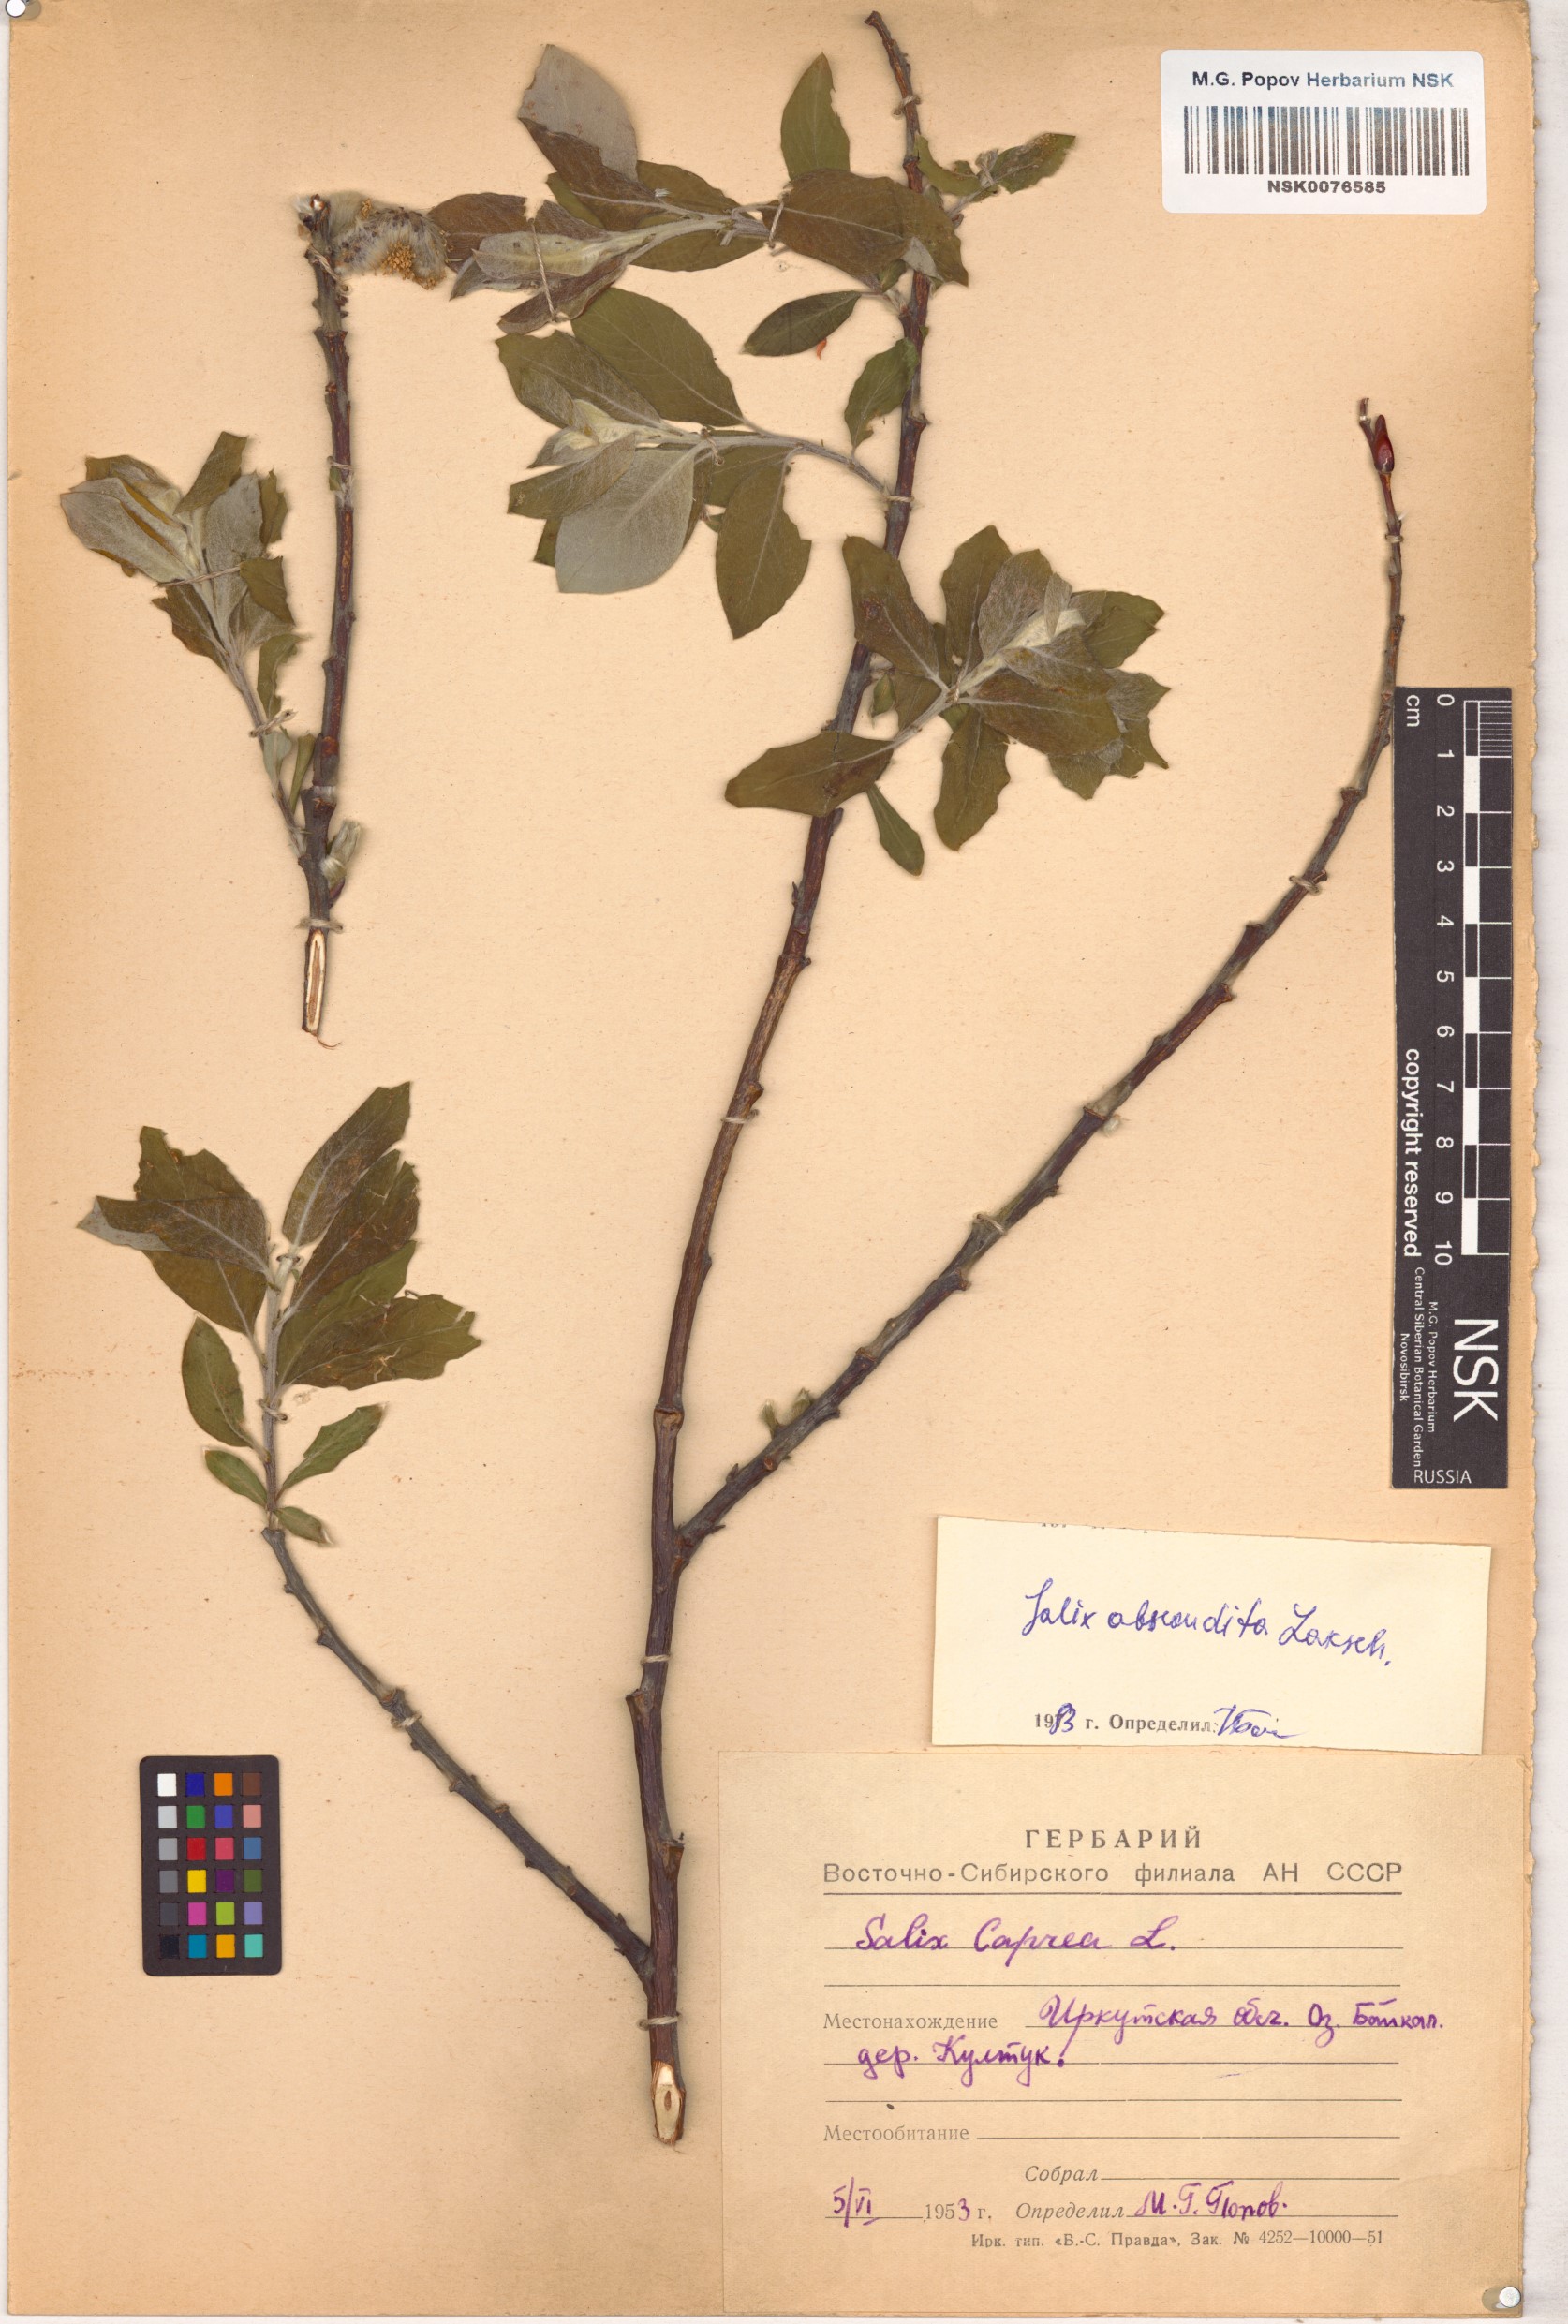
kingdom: Plantae
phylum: Tracheophyta
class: Magnoliopsida
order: Malpighiales
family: Salicaceae
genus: Salix
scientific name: Salix abscondita
